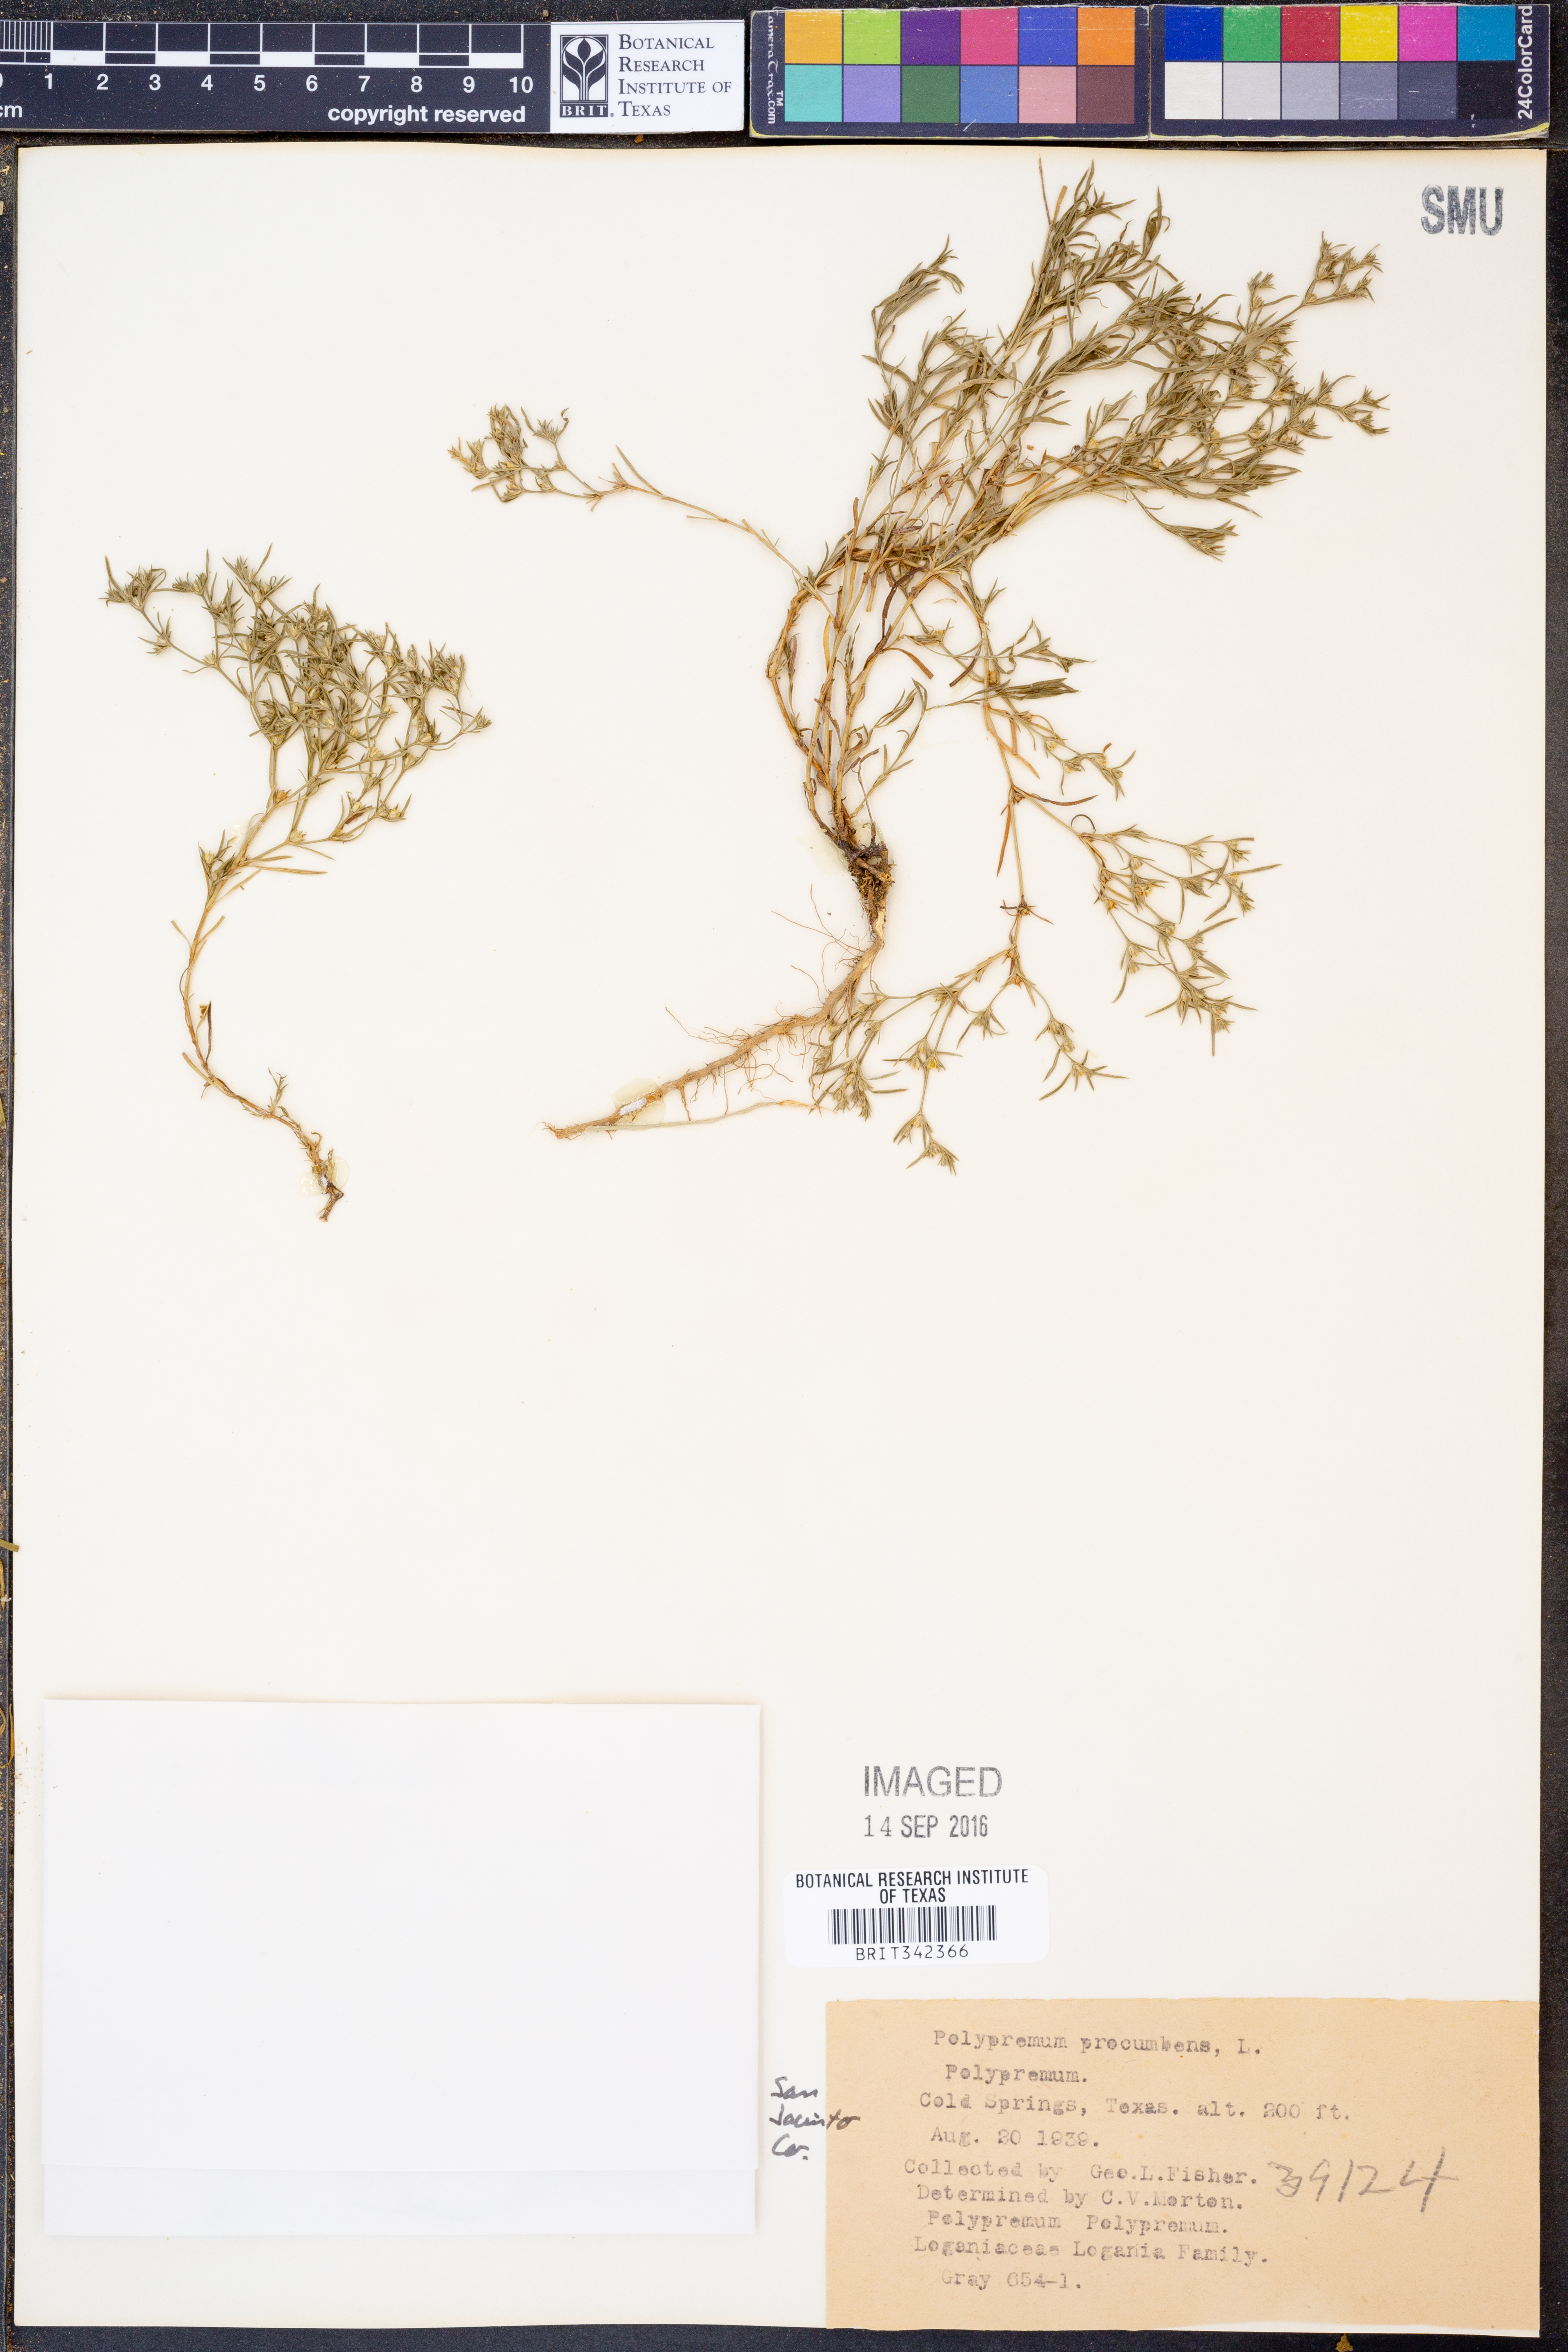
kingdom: Plantae
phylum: Tracheophyta
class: Magnoliopsida
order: Lamiales
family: Tetrachondraceae
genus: Polypremum
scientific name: Polypremum procumbens
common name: Juniper-leaf
